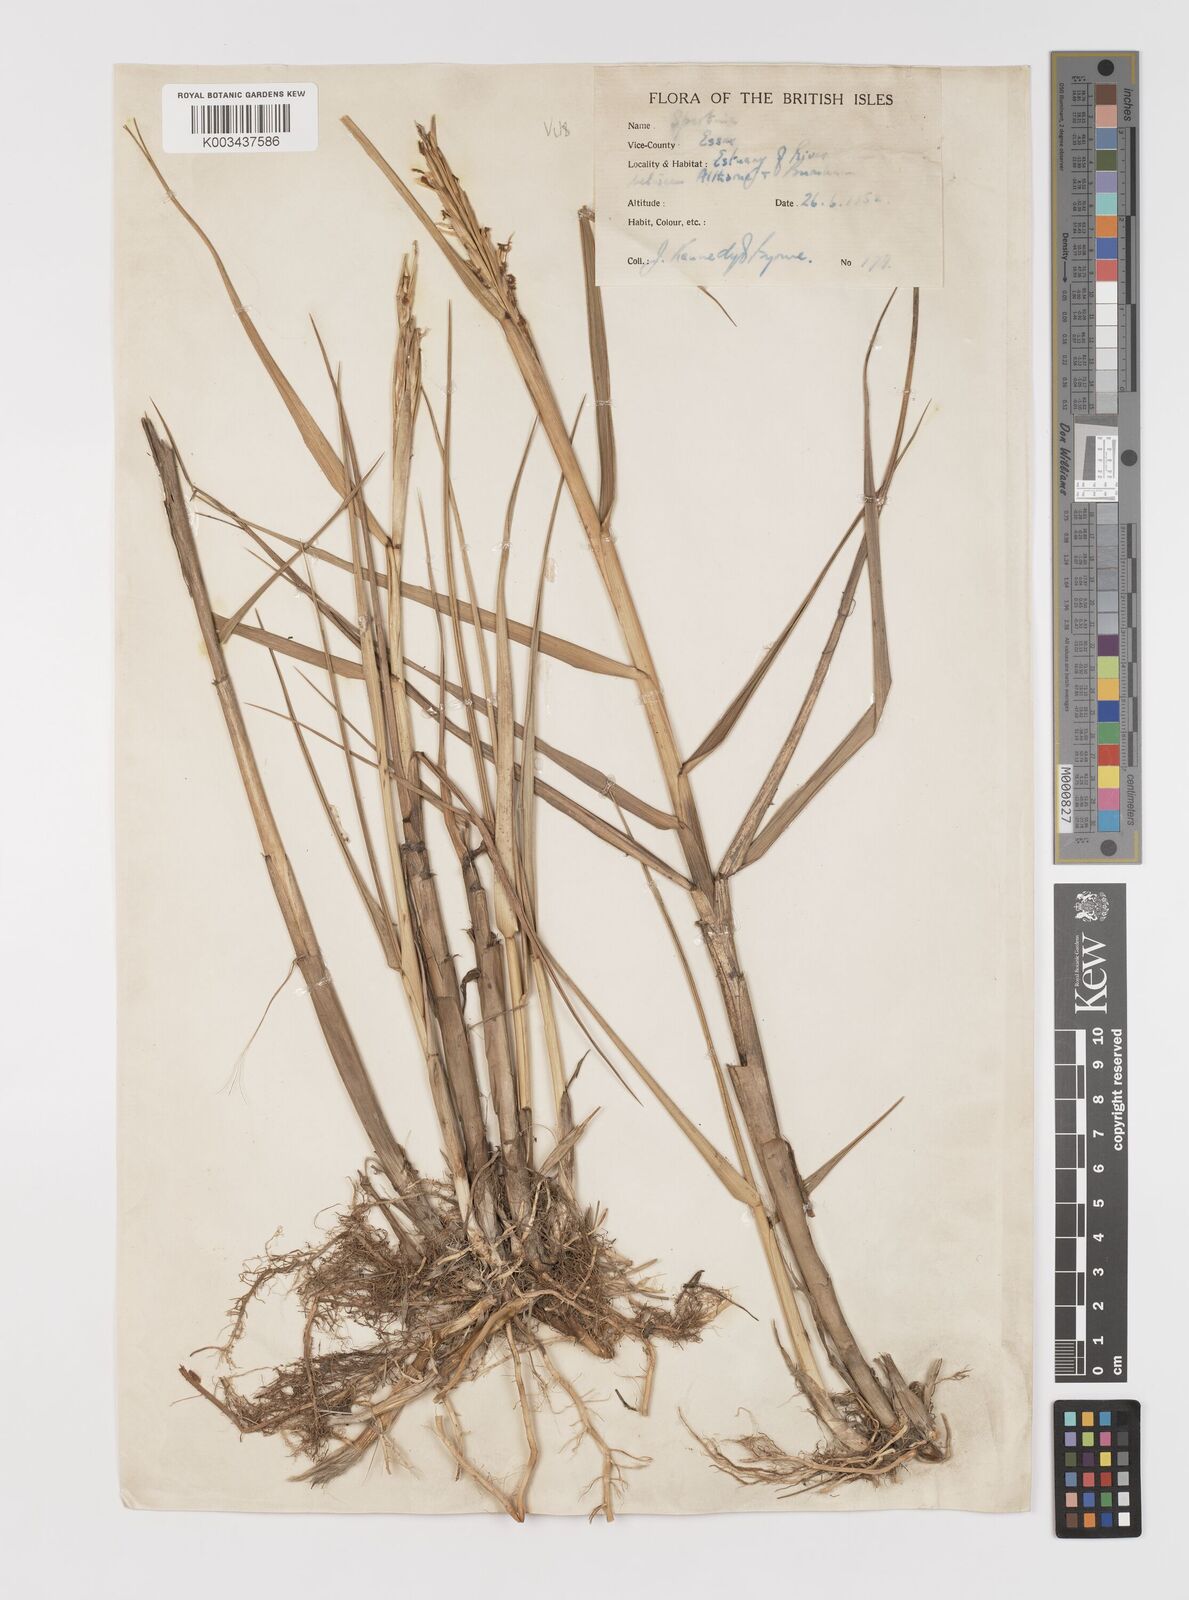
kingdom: Plantae
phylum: Tracheophyta
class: Liliopsida
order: Poales
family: Poaceae
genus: Sporobolus
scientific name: Sporobolus anglicus
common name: English cordgrass
